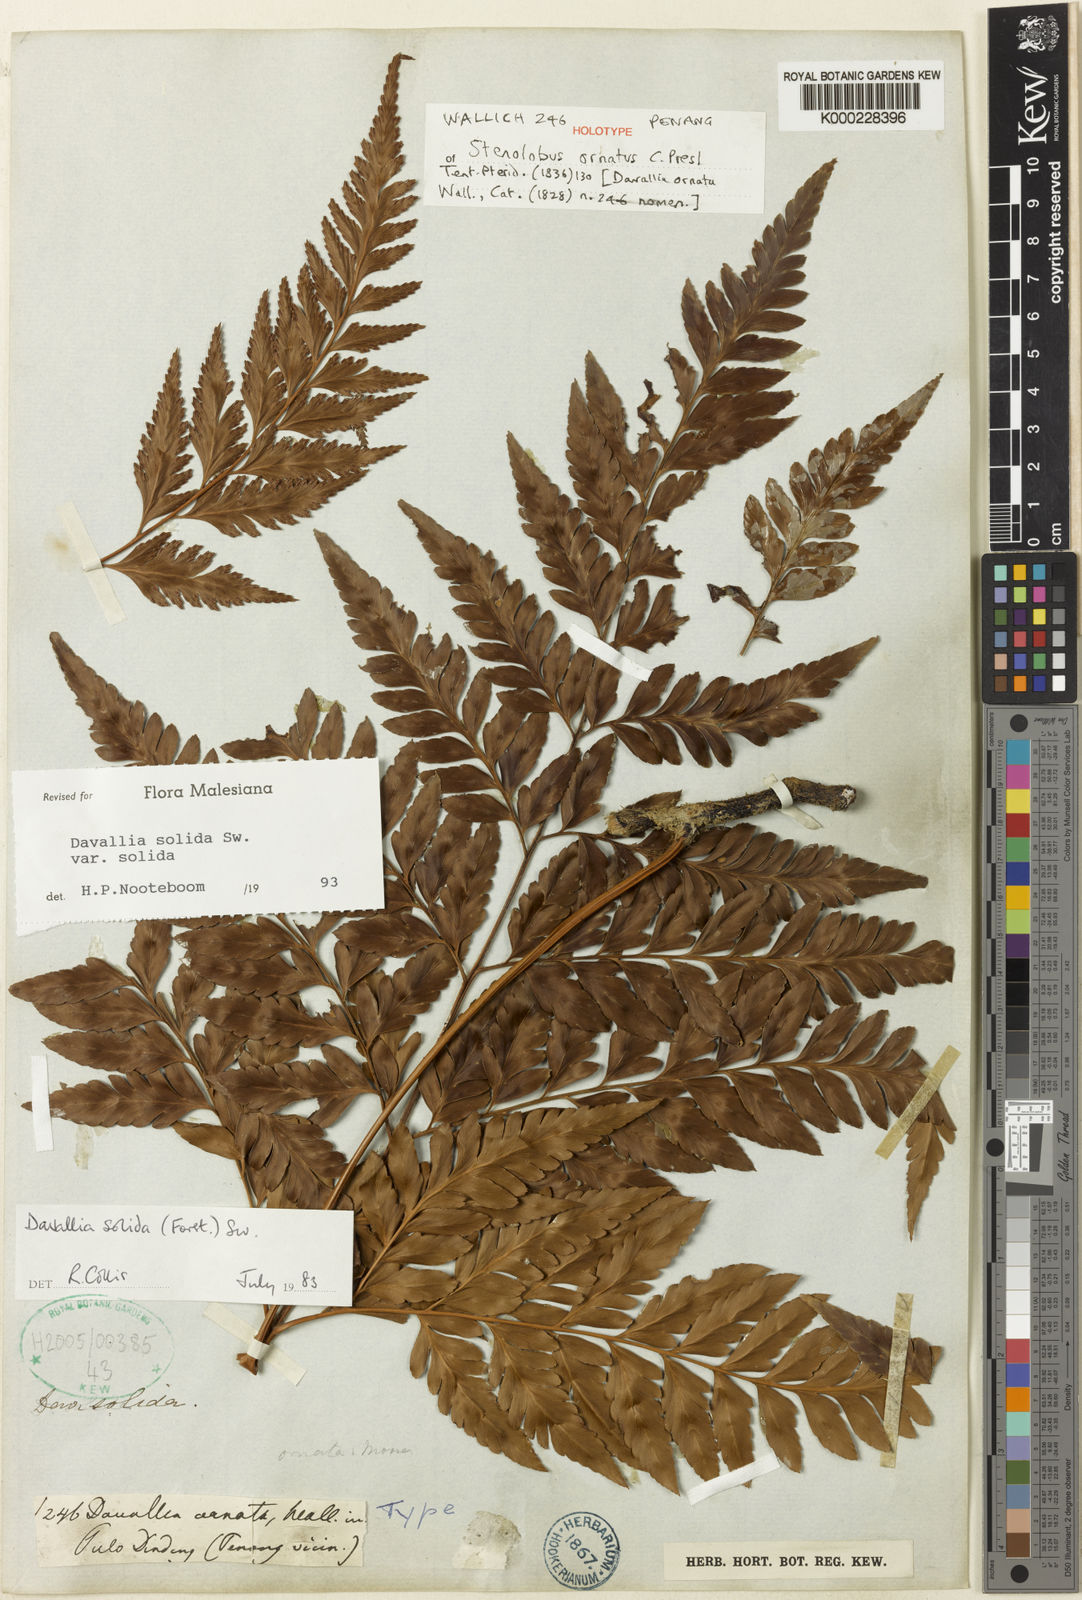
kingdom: Plantae
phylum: Tracheophyta
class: Polypodiopsida
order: Polypodiales
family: Davalliaceae
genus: Davallia
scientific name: Davallia solida
